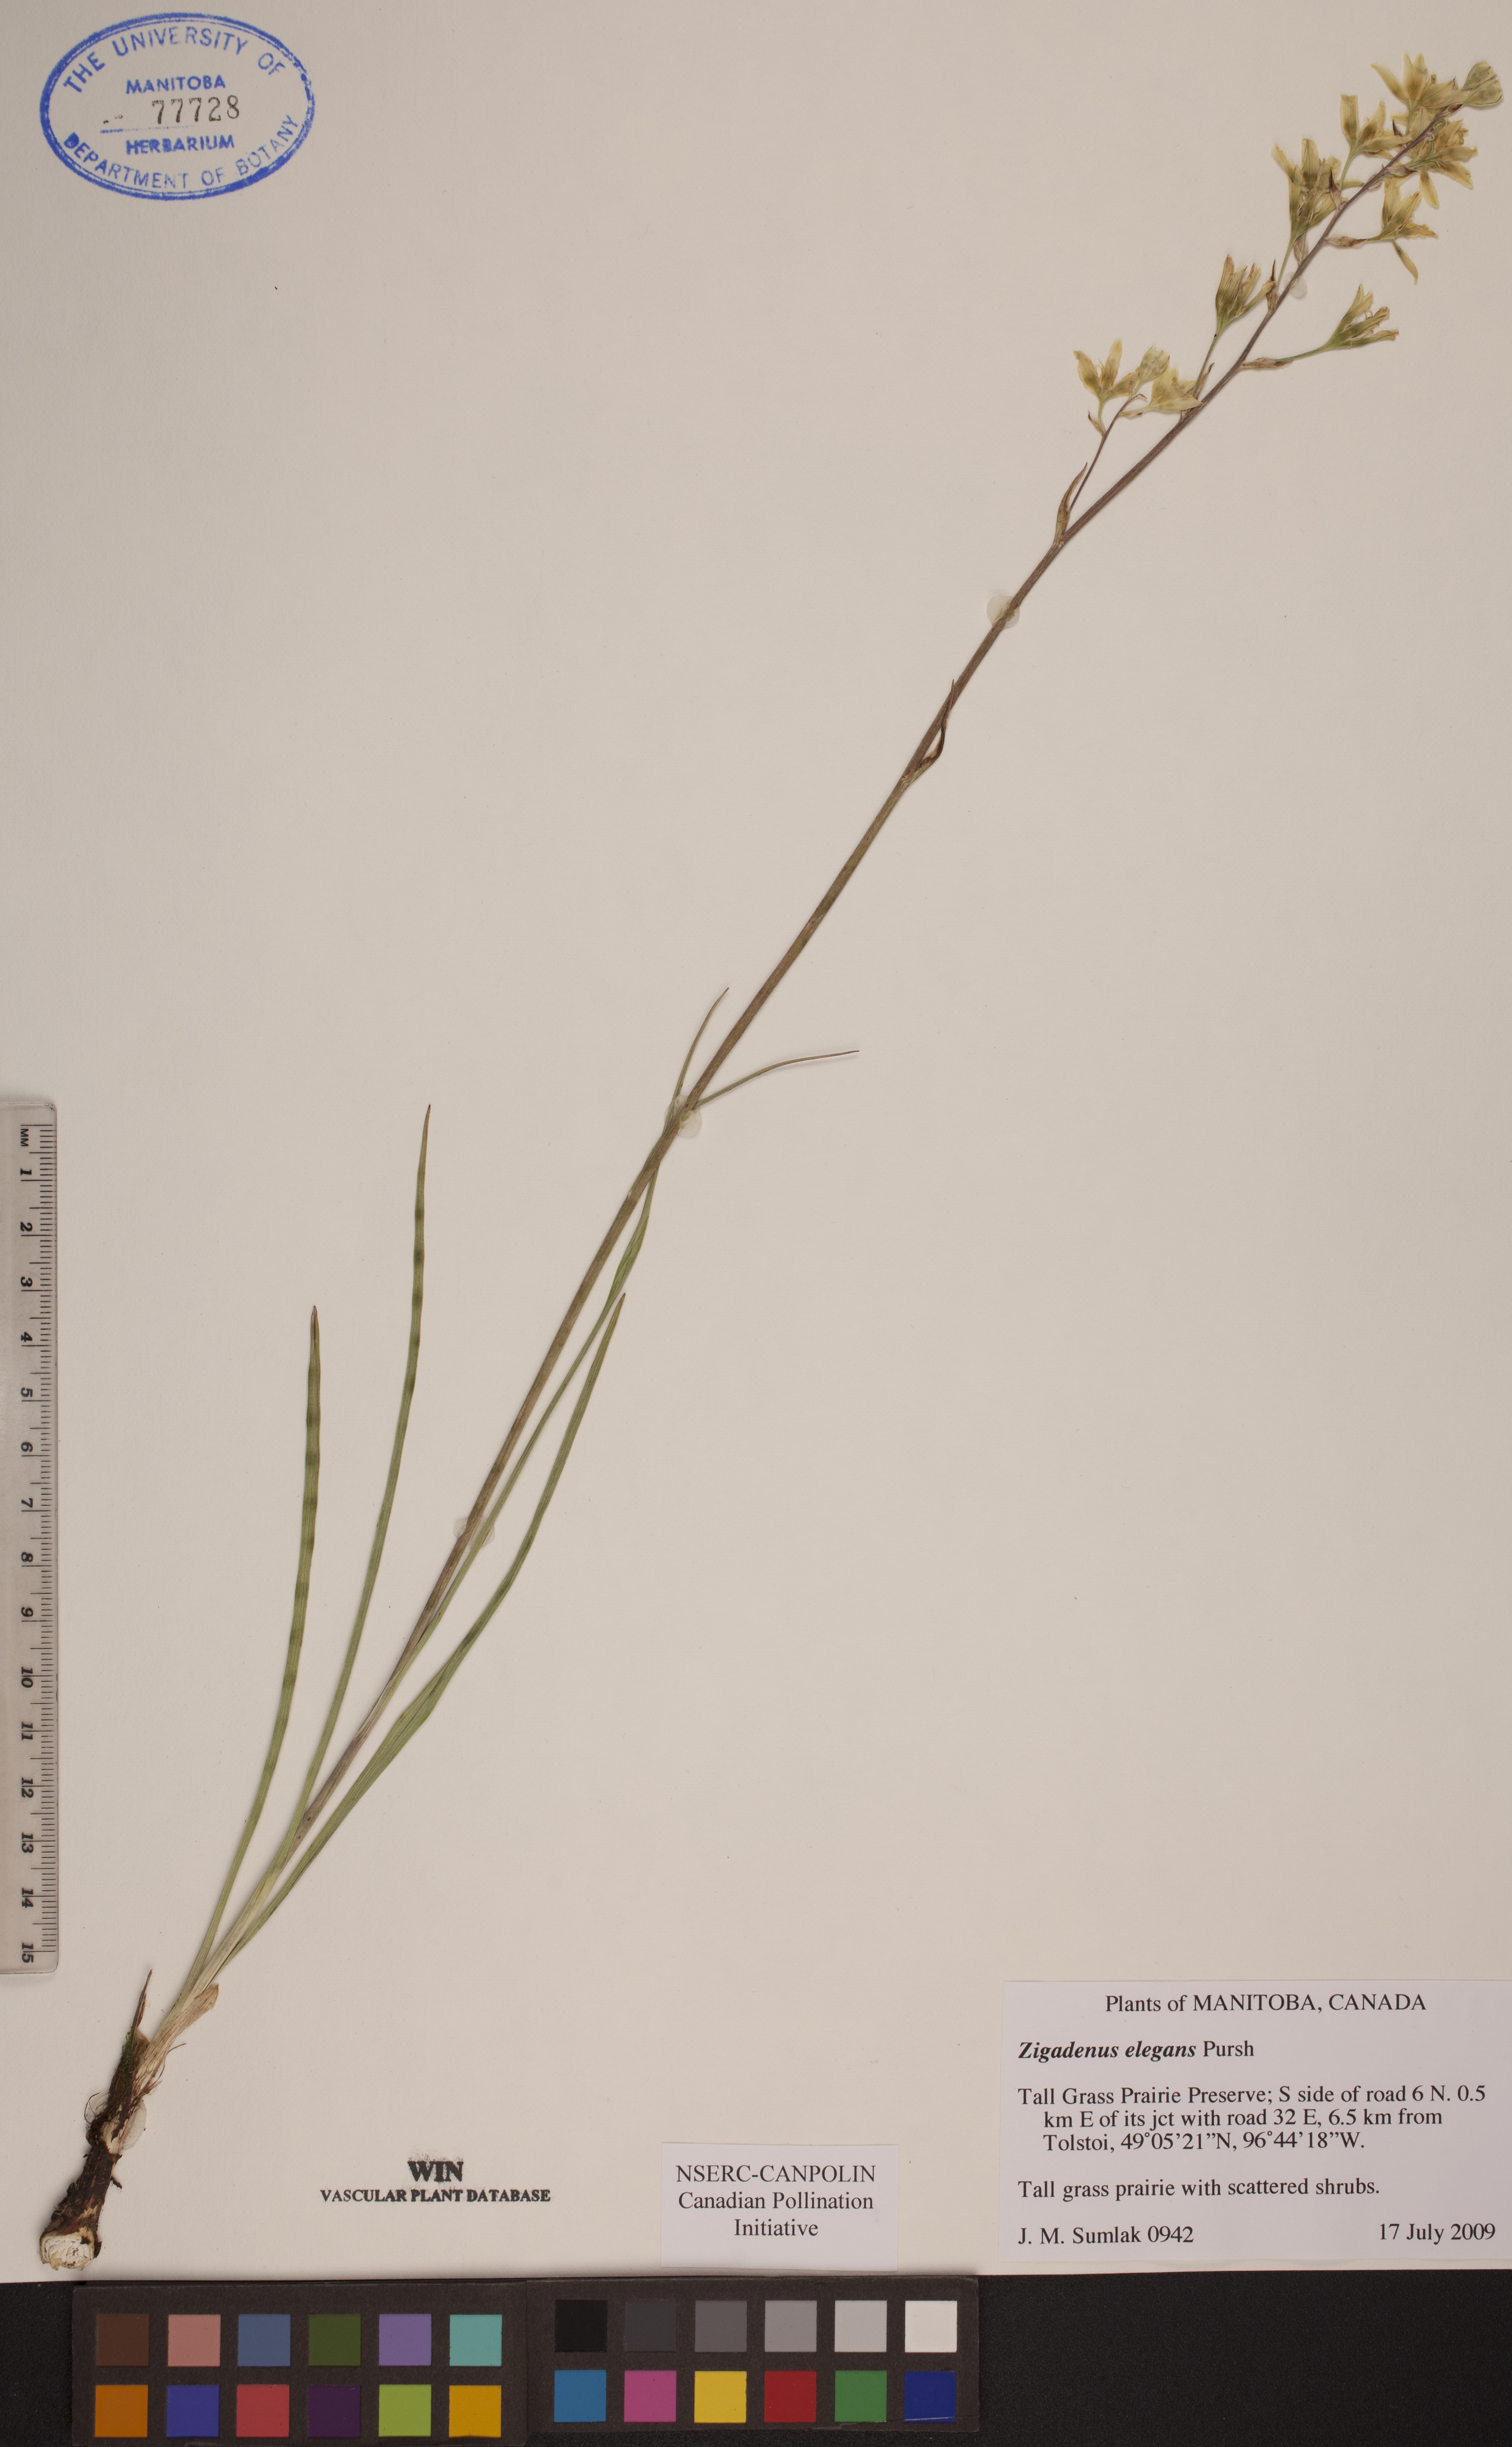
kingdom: Plantae
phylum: Tracheophyta
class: Liliopsida
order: Liliales
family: Melanthiaceae
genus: Anticlea
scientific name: Anticlea elegans
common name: Mountain death camas
